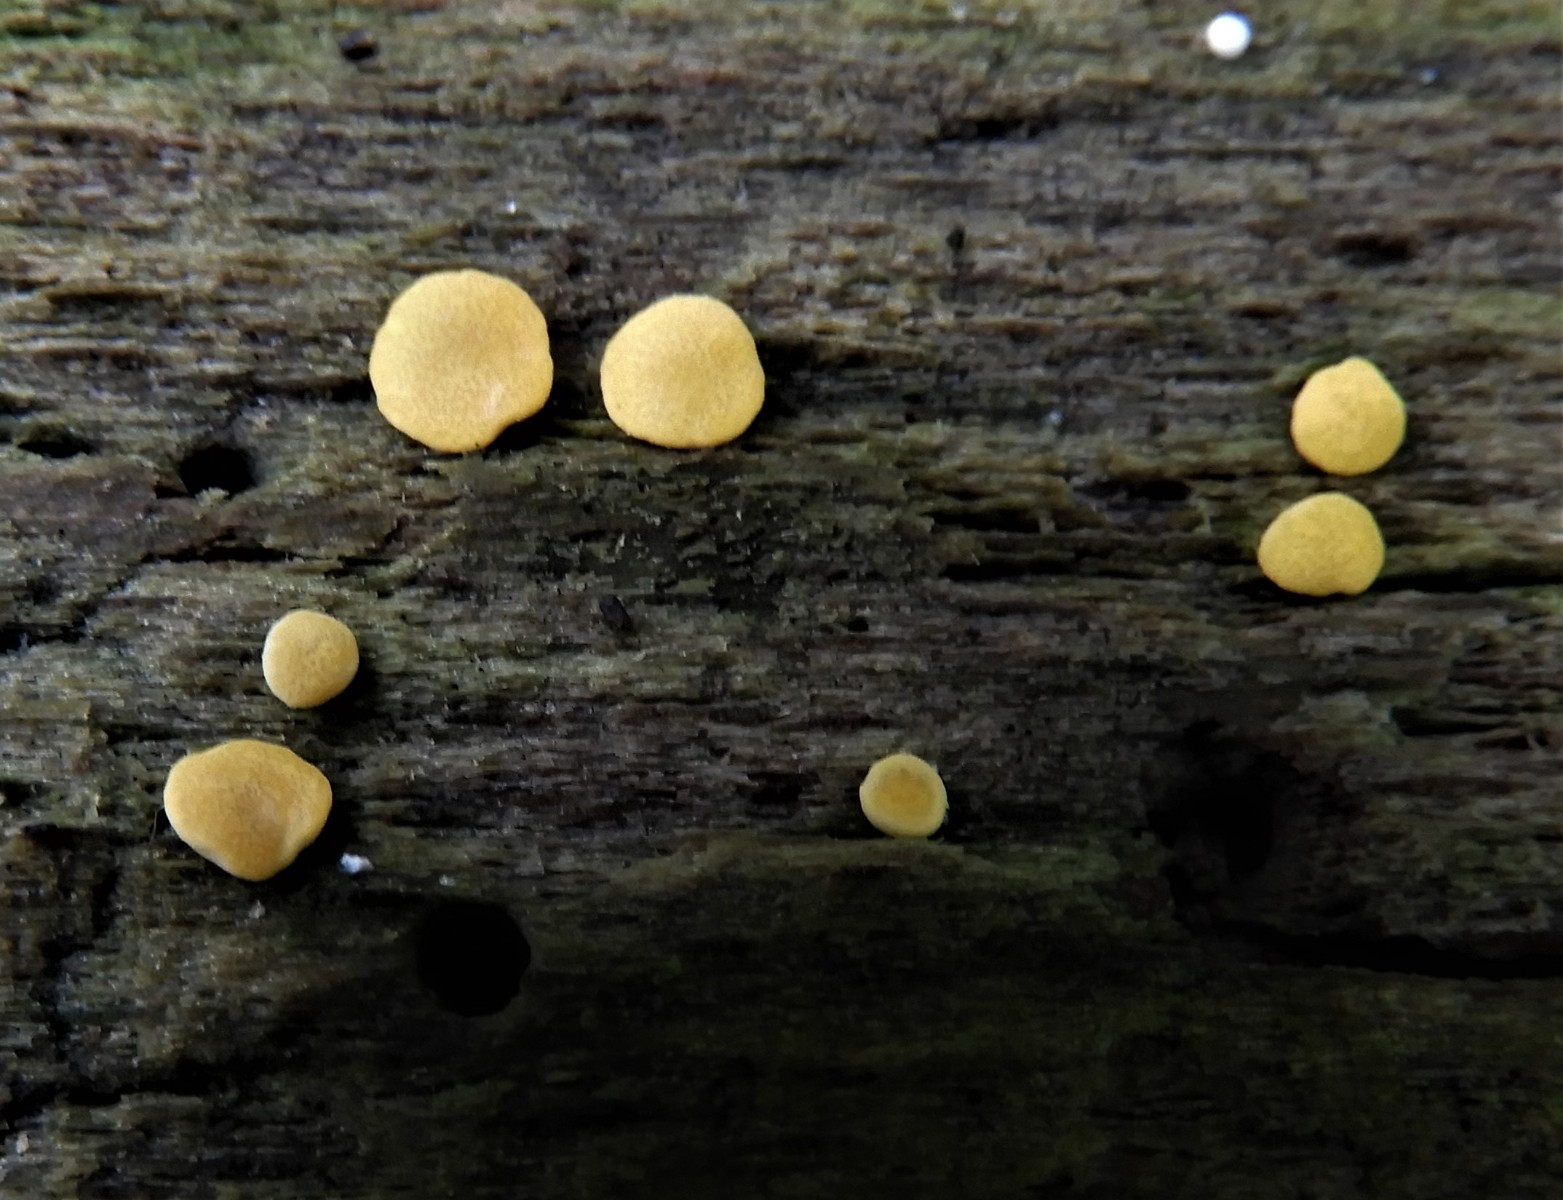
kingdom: Fungi
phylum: Ascomycota
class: Sordariomycetes
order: Hypocreales
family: Hypocreaceae
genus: Trichoderma
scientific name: Trichoderma aureoviride
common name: æggegul kødkerne
